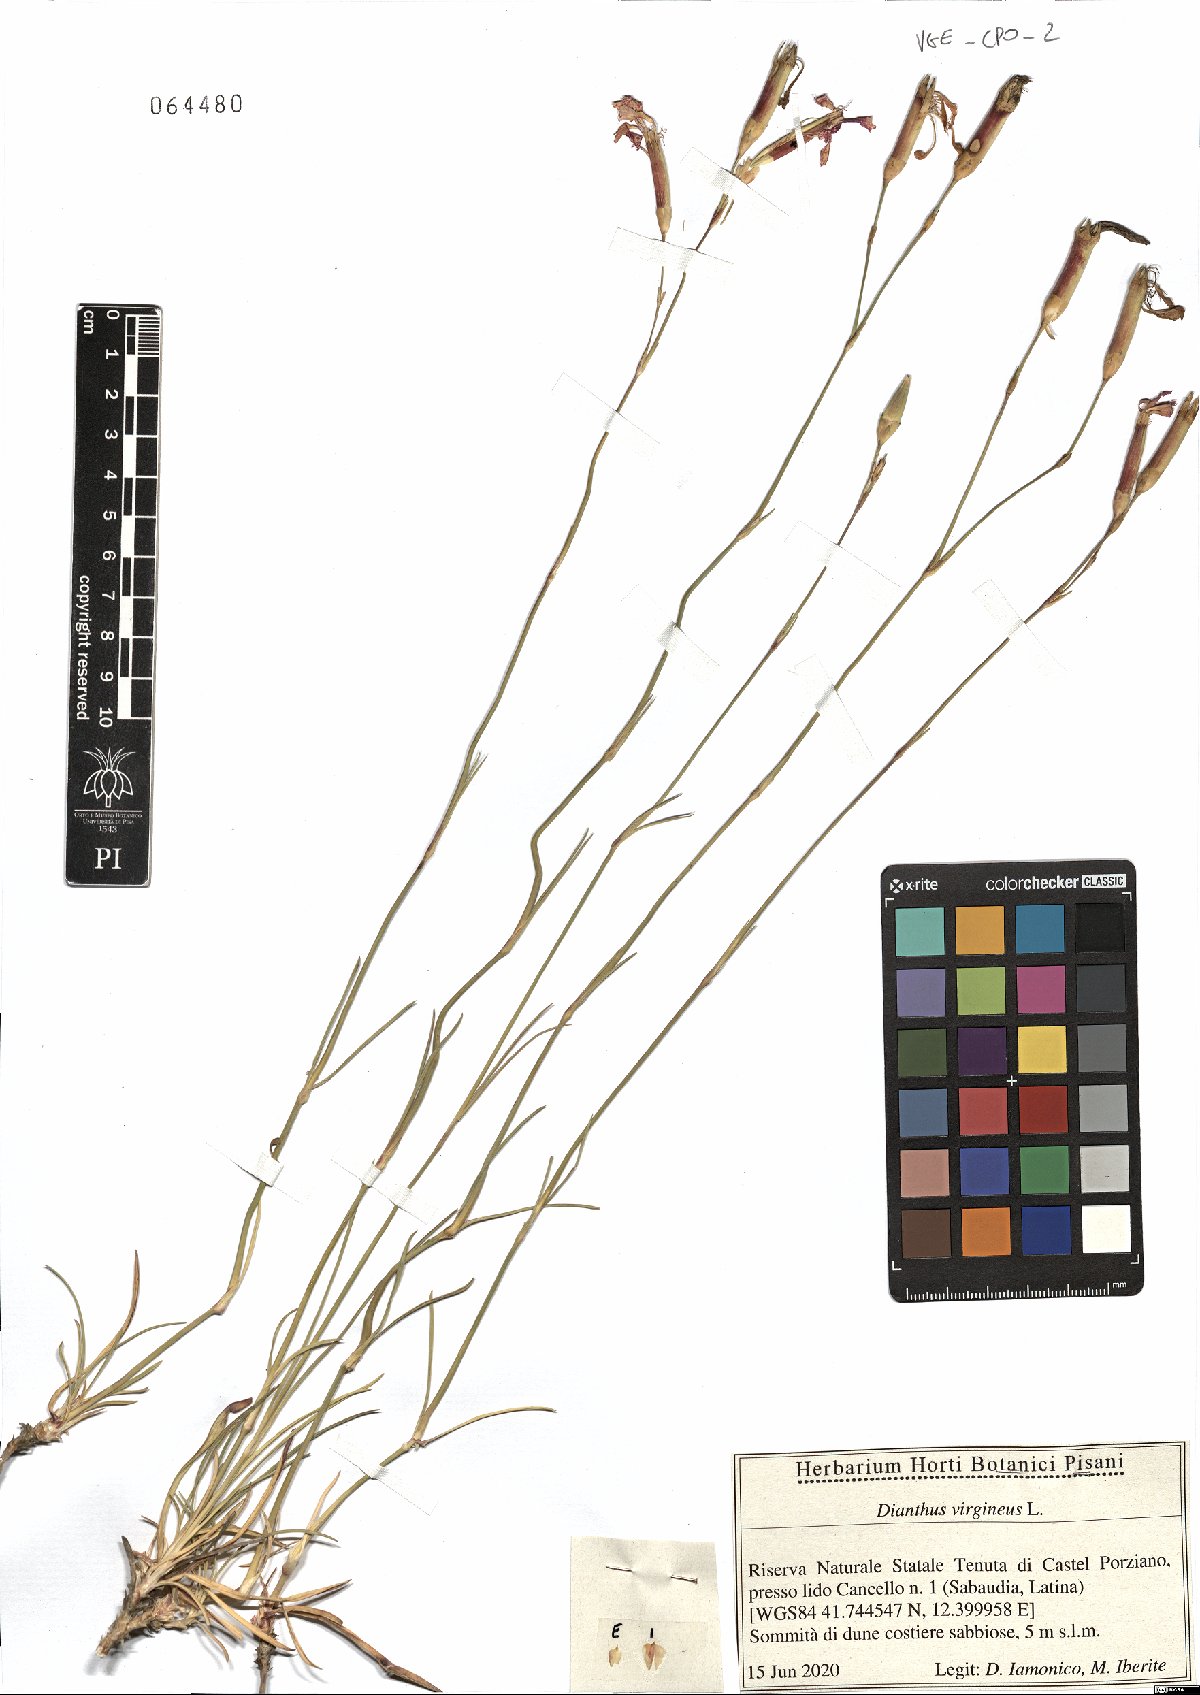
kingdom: Plantae
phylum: Tracheophyta
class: Magnoliopsida
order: Caryophyllales
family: Caryophyllaceae
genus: Dianthus
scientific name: Dianthus virgineus
